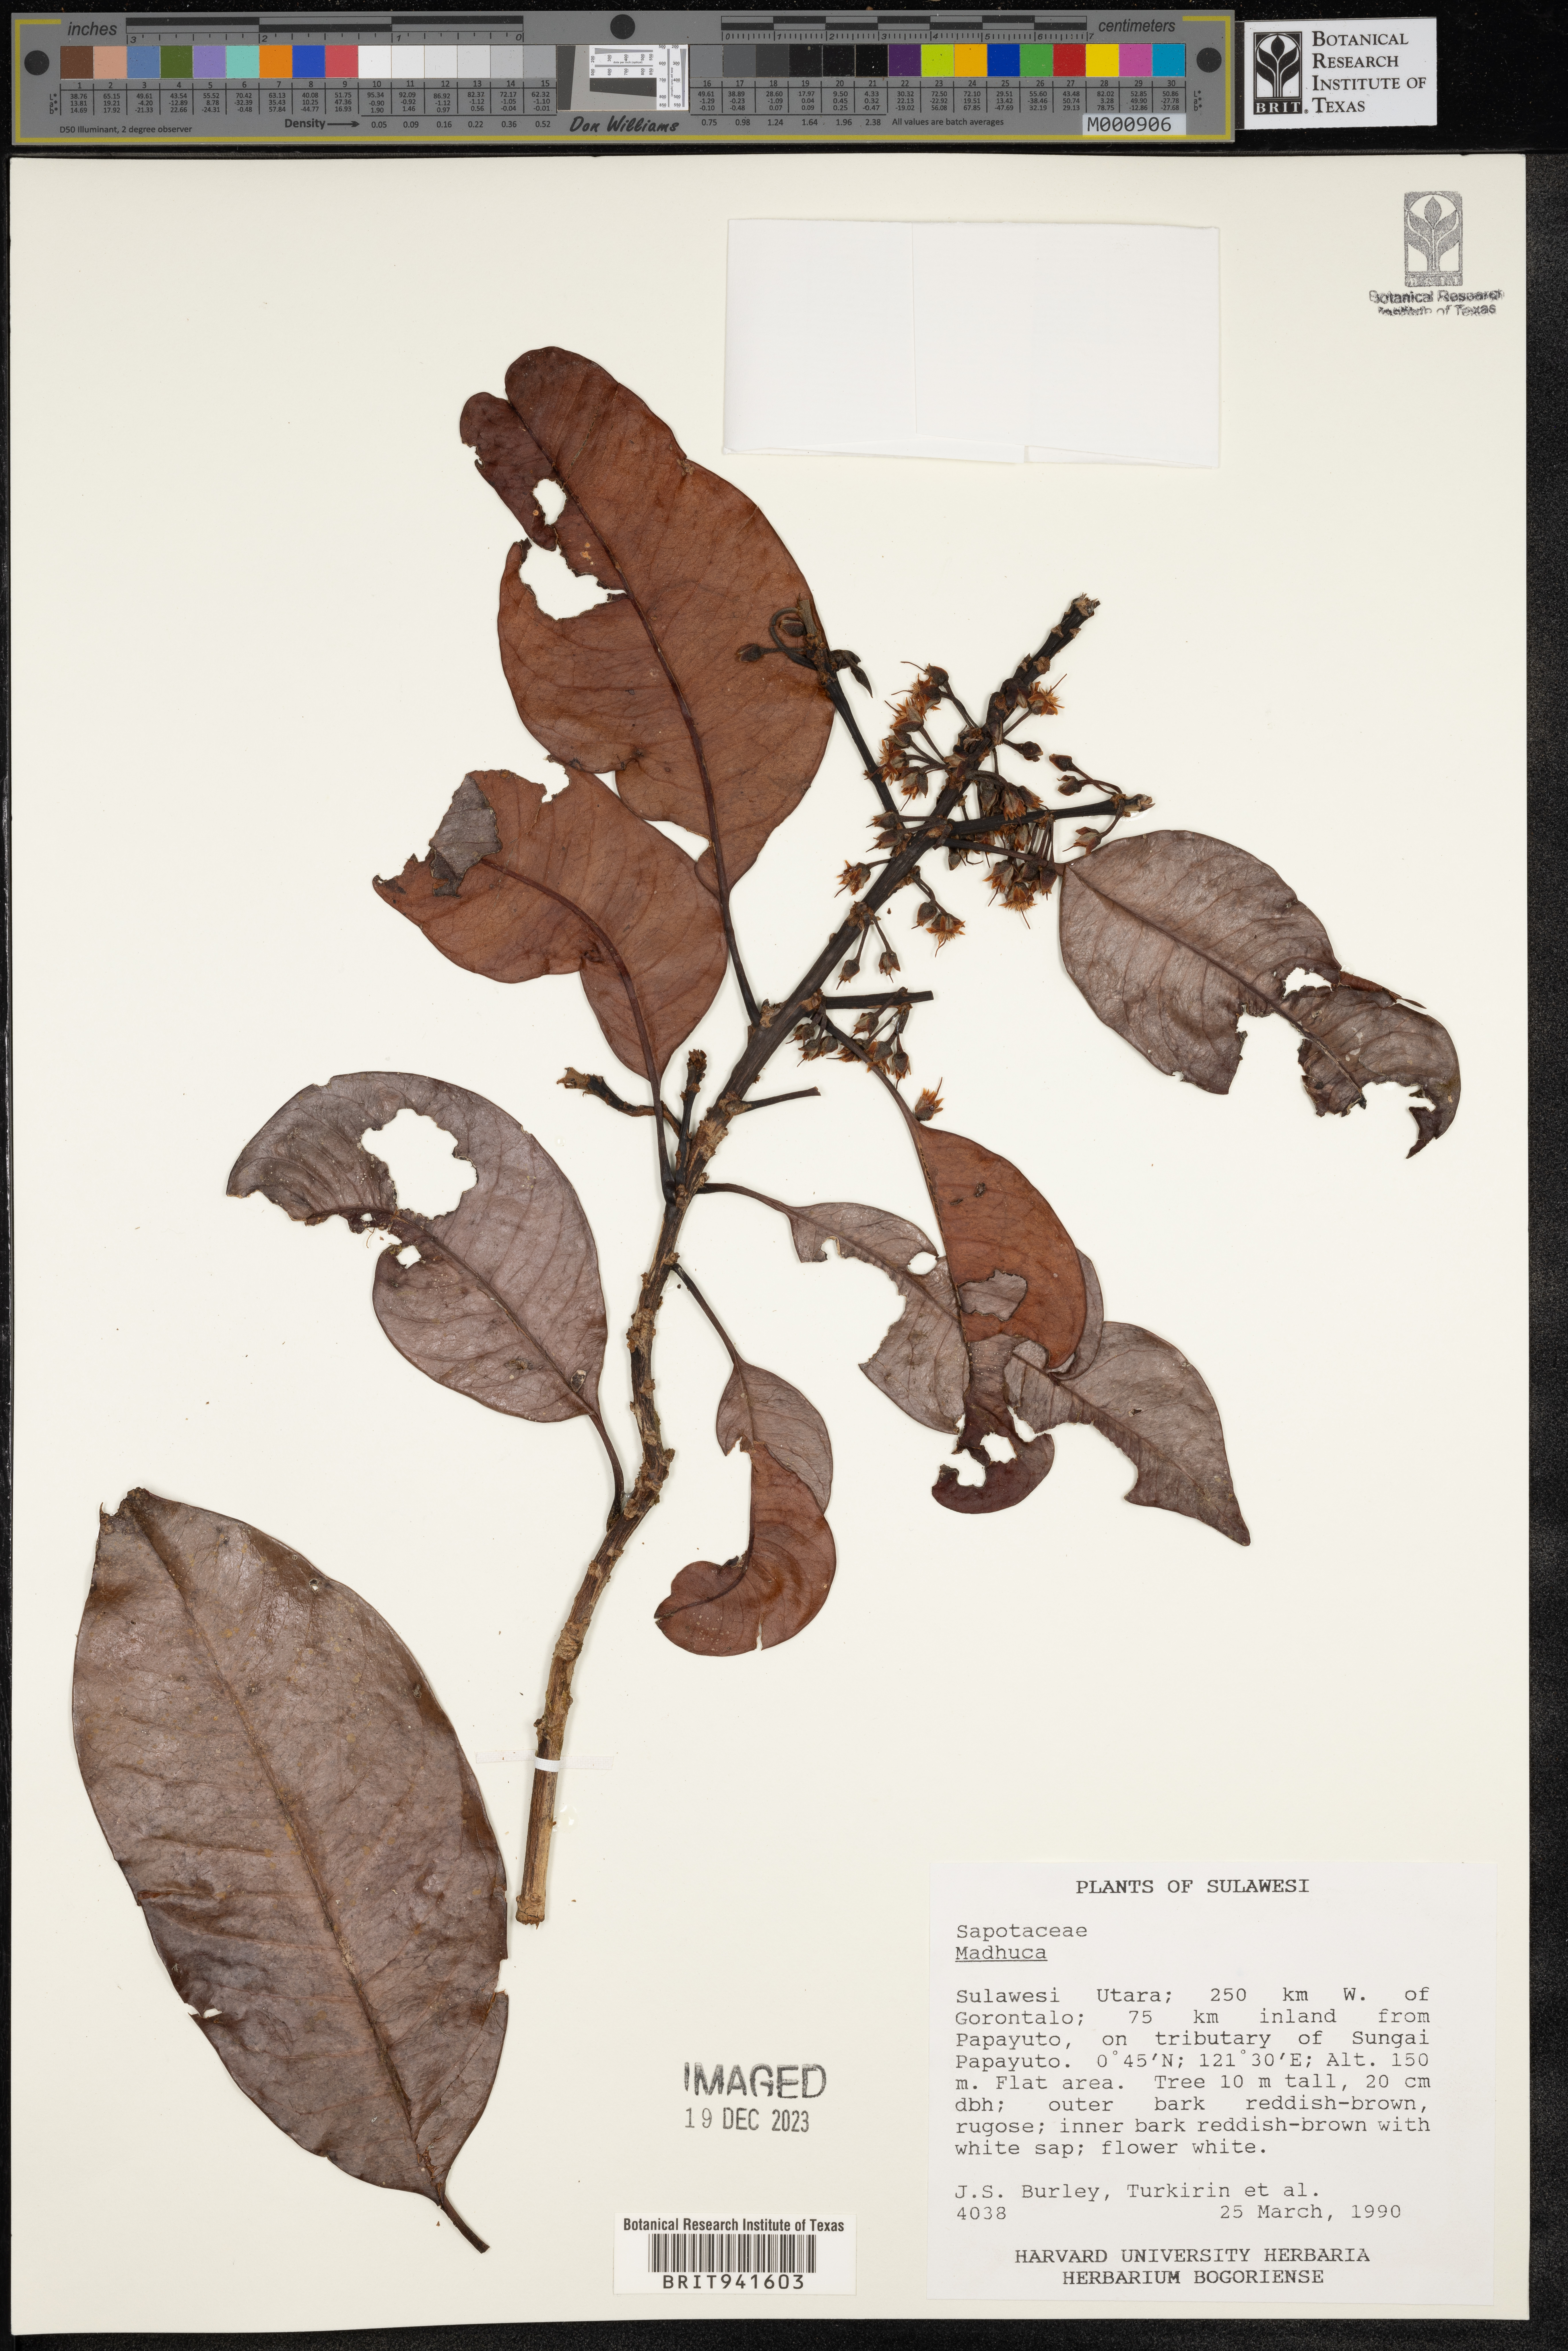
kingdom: Plantae
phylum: Tracheophyta
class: Magnoliopsida
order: Ericales
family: Sapotaceae
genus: Madhuca
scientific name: Madhuca
